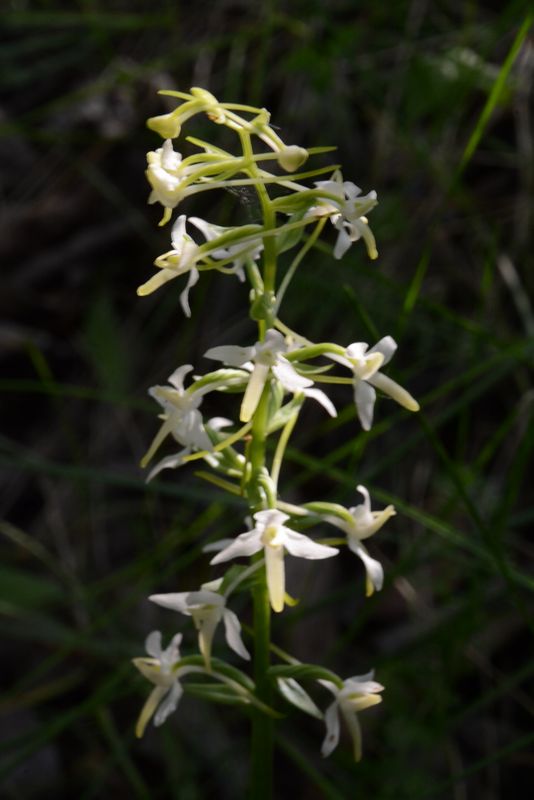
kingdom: Plantae
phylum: Tracheophyta
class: Liliopsida
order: Asparagales
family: Orchidaceae
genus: Platanthera
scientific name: Platanthera bifolia
